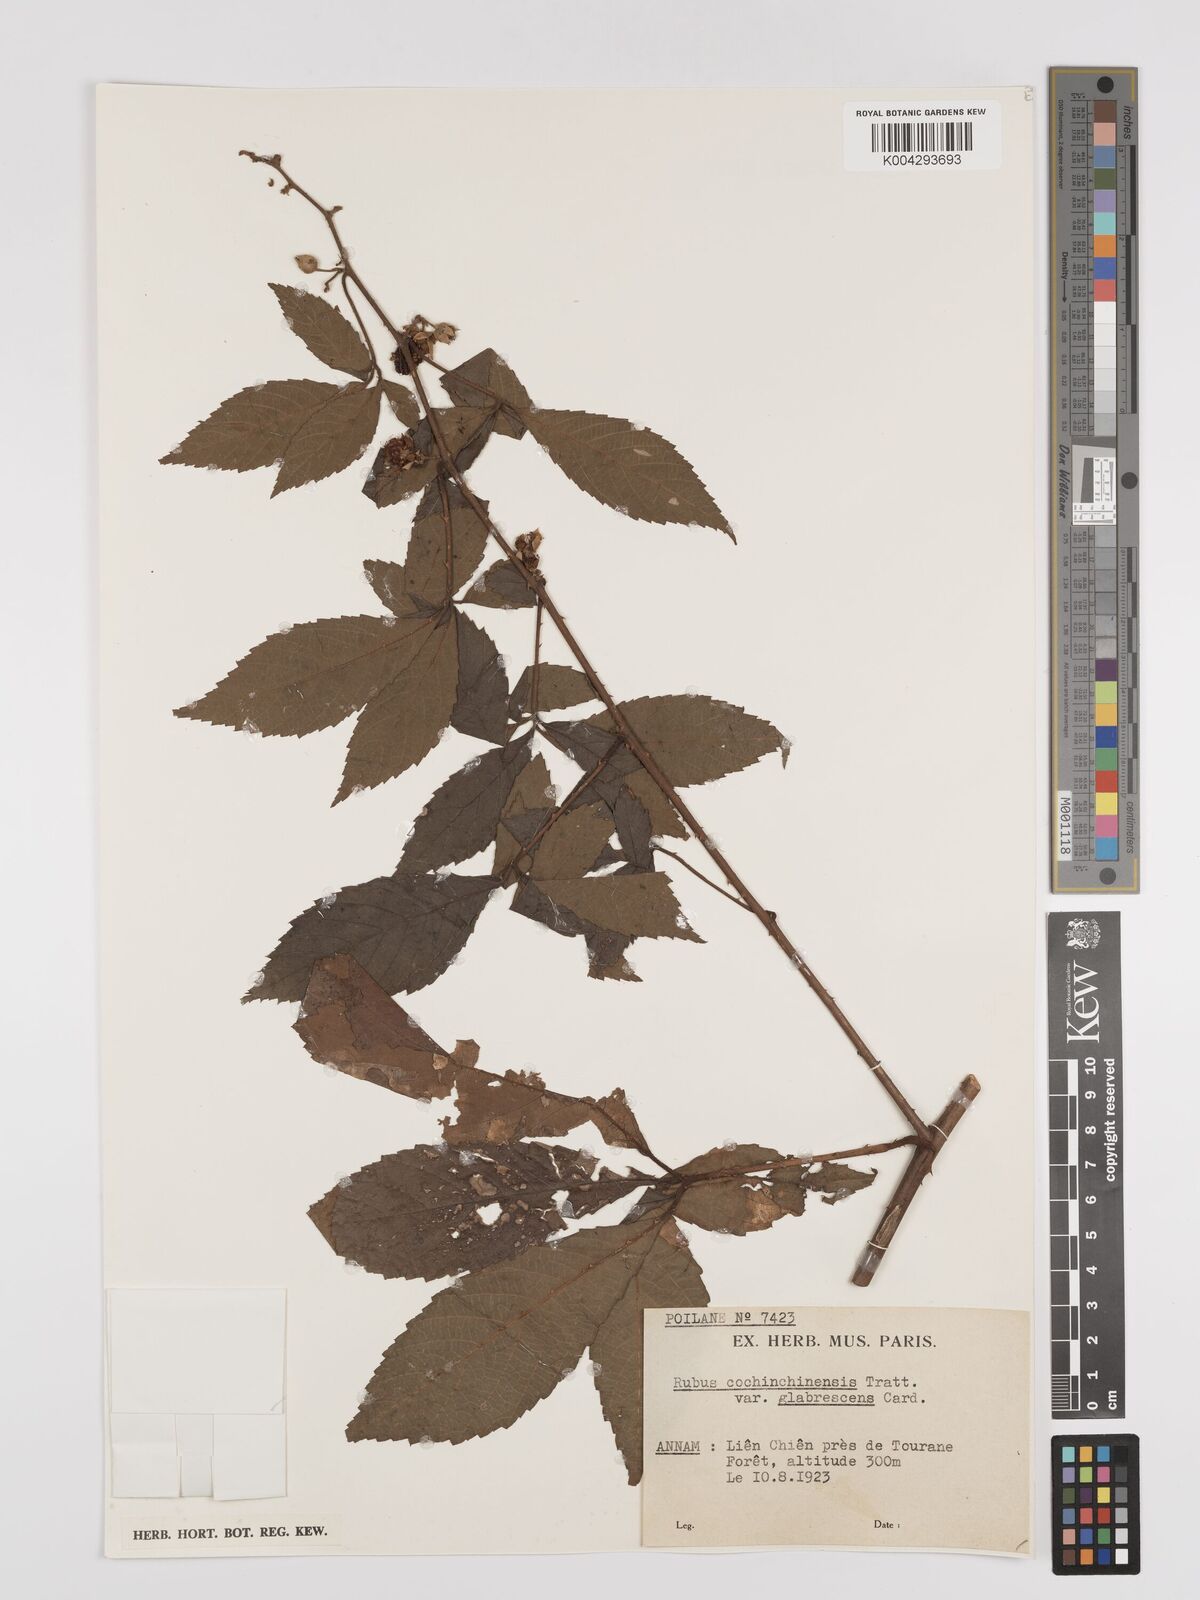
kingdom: Plantae
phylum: Tracheophyta
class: Magnoliopsida
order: Rosales
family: Rosaceae
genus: Rubus
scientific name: Rubus cochinchinensis
